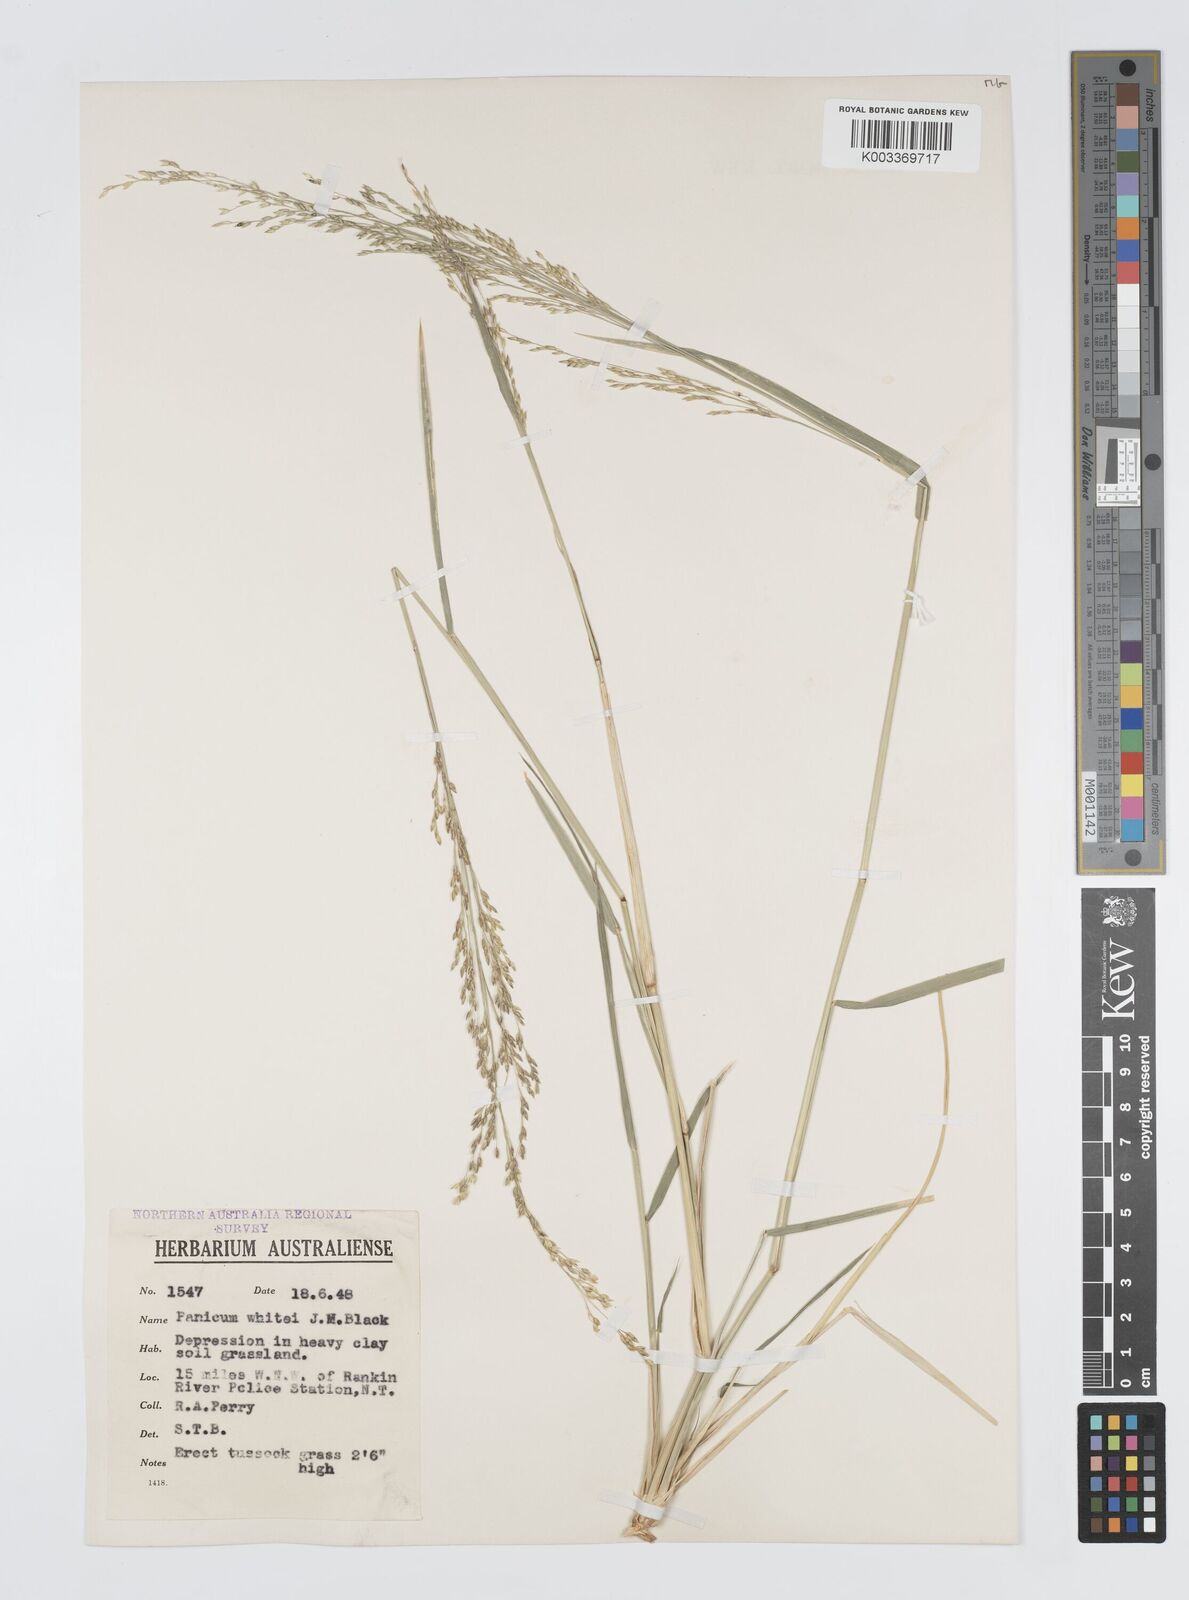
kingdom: Plantae
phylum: Tracheophyta
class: Liliopsida
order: Poales
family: Poaceae
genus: Panicum
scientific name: Panicum laevinode
